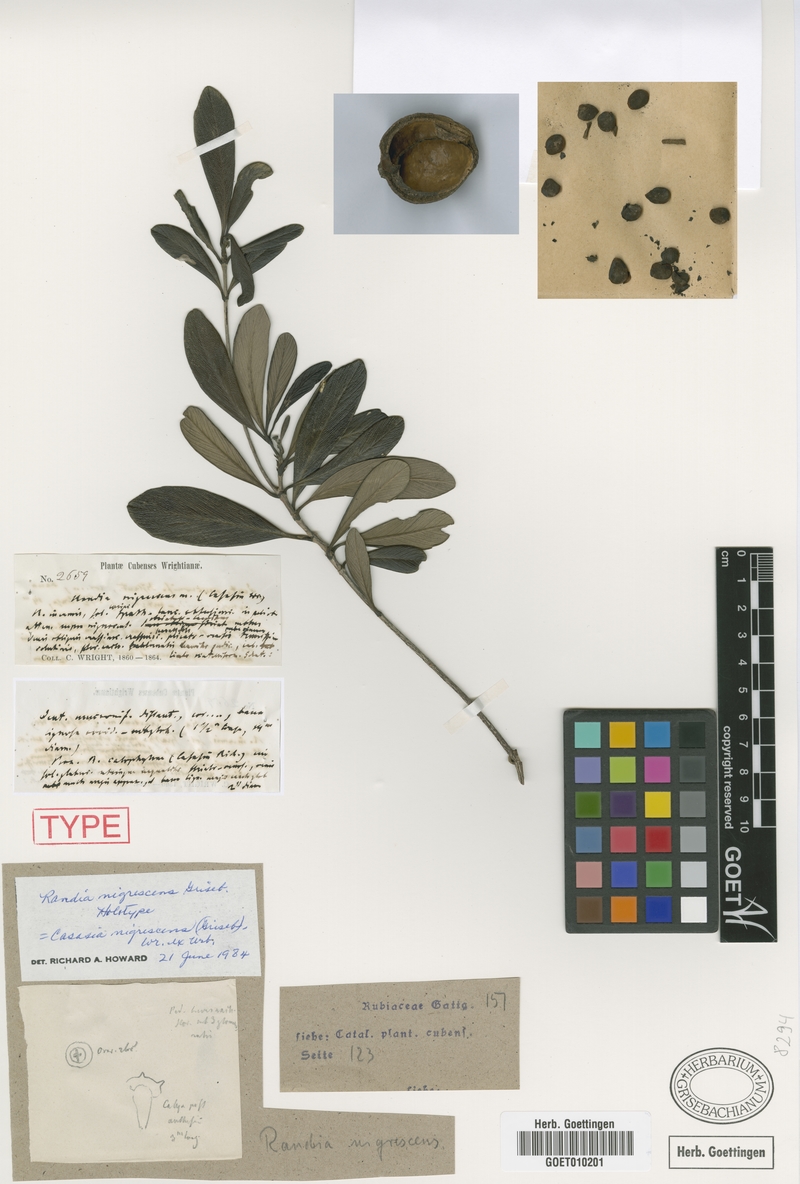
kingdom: Plantae
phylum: Tracheophyta
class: Magnoliopsida
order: Gentianales
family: Rubiaceae
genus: Casasia
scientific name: Casasia nigrescens
